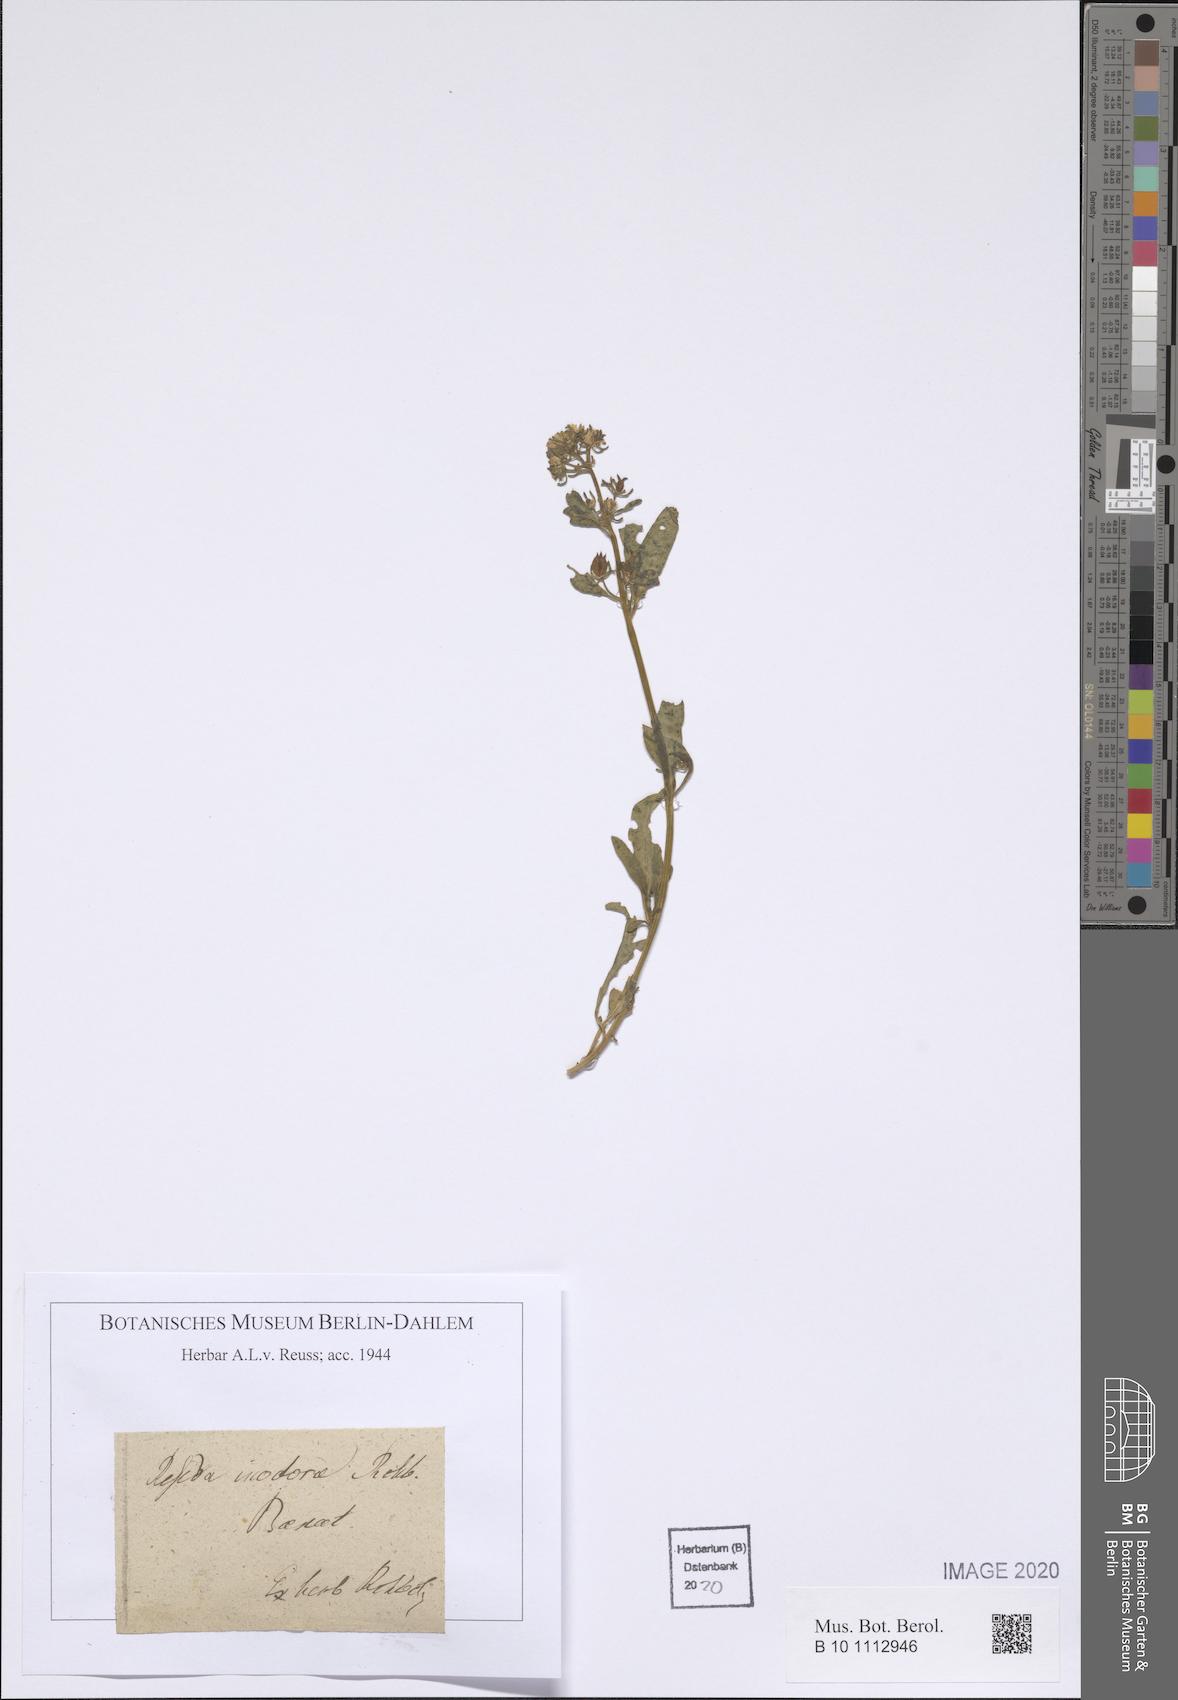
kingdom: Plantae
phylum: Tracheophyta
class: Magnoliopsida
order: Brassicales
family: Resedaceae
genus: Reseda
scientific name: Reseda inodora
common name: Scentless mignonette
